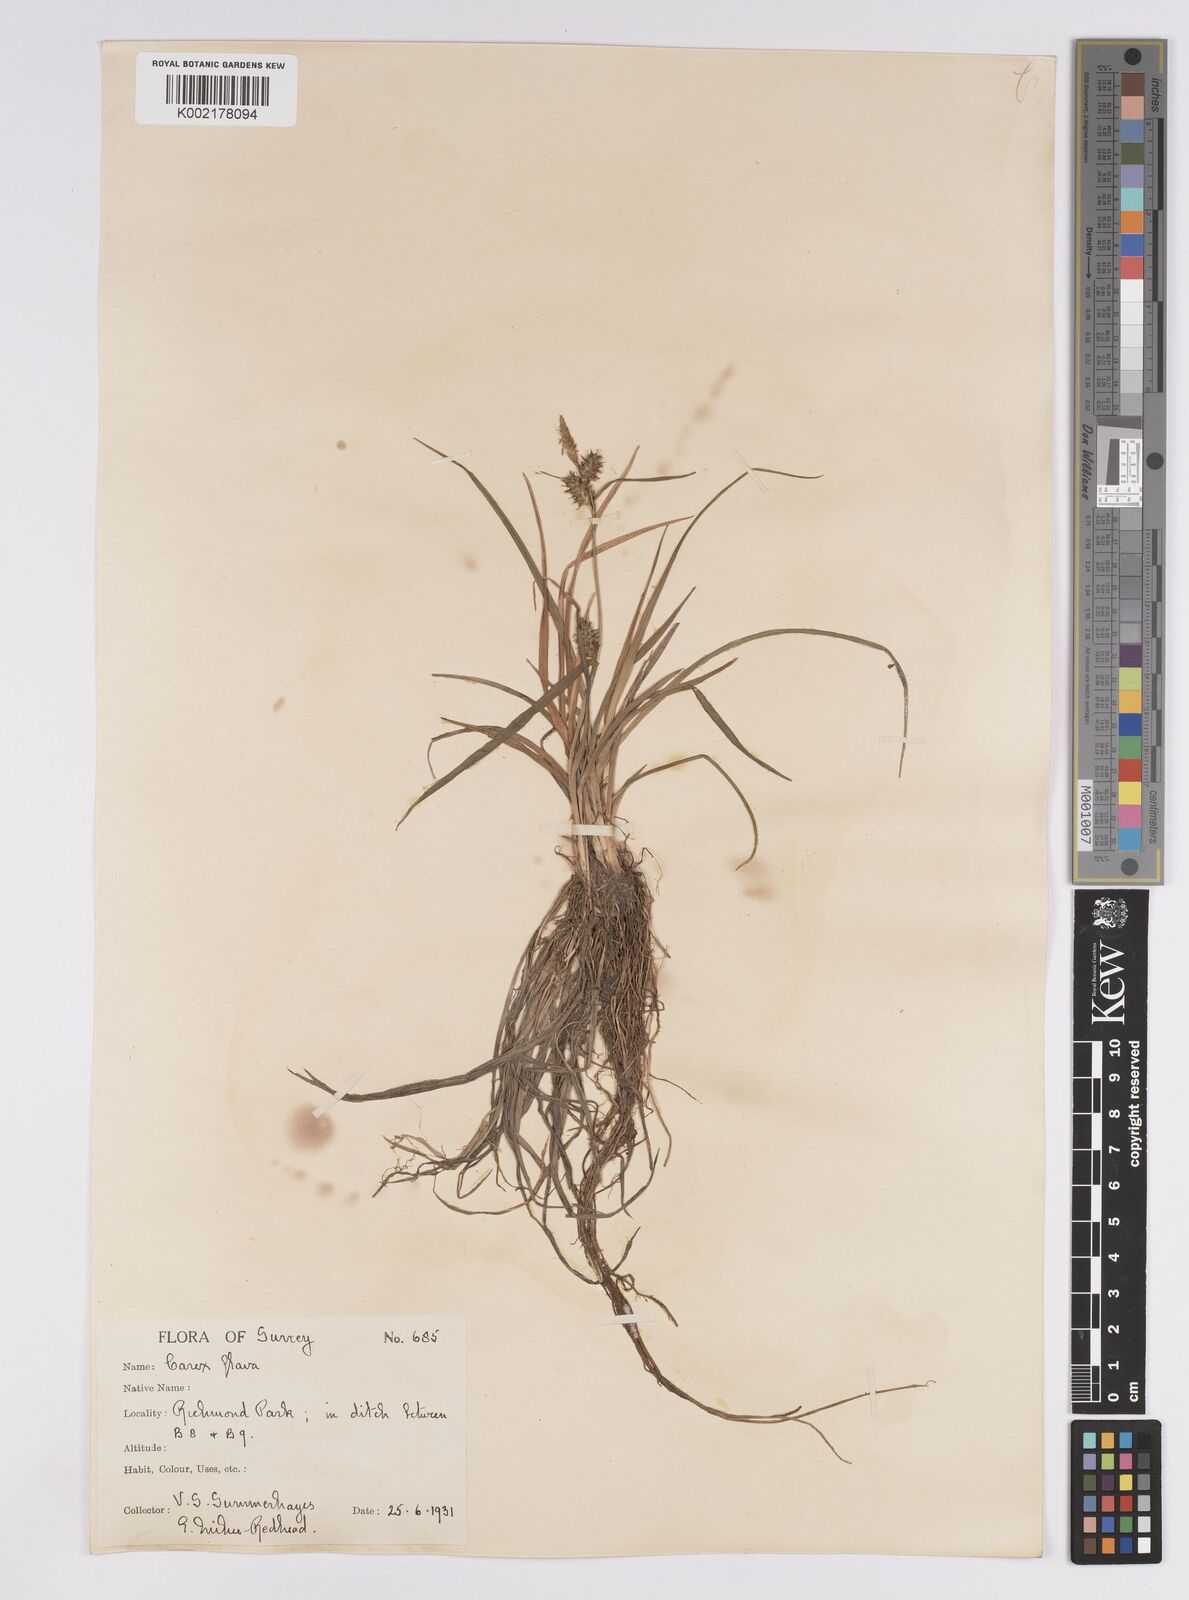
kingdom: Plantae
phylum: Tracheophyta
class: Liliopsida
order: Poales
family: Cyperaceae
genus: Carex
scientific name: Carex demissa
